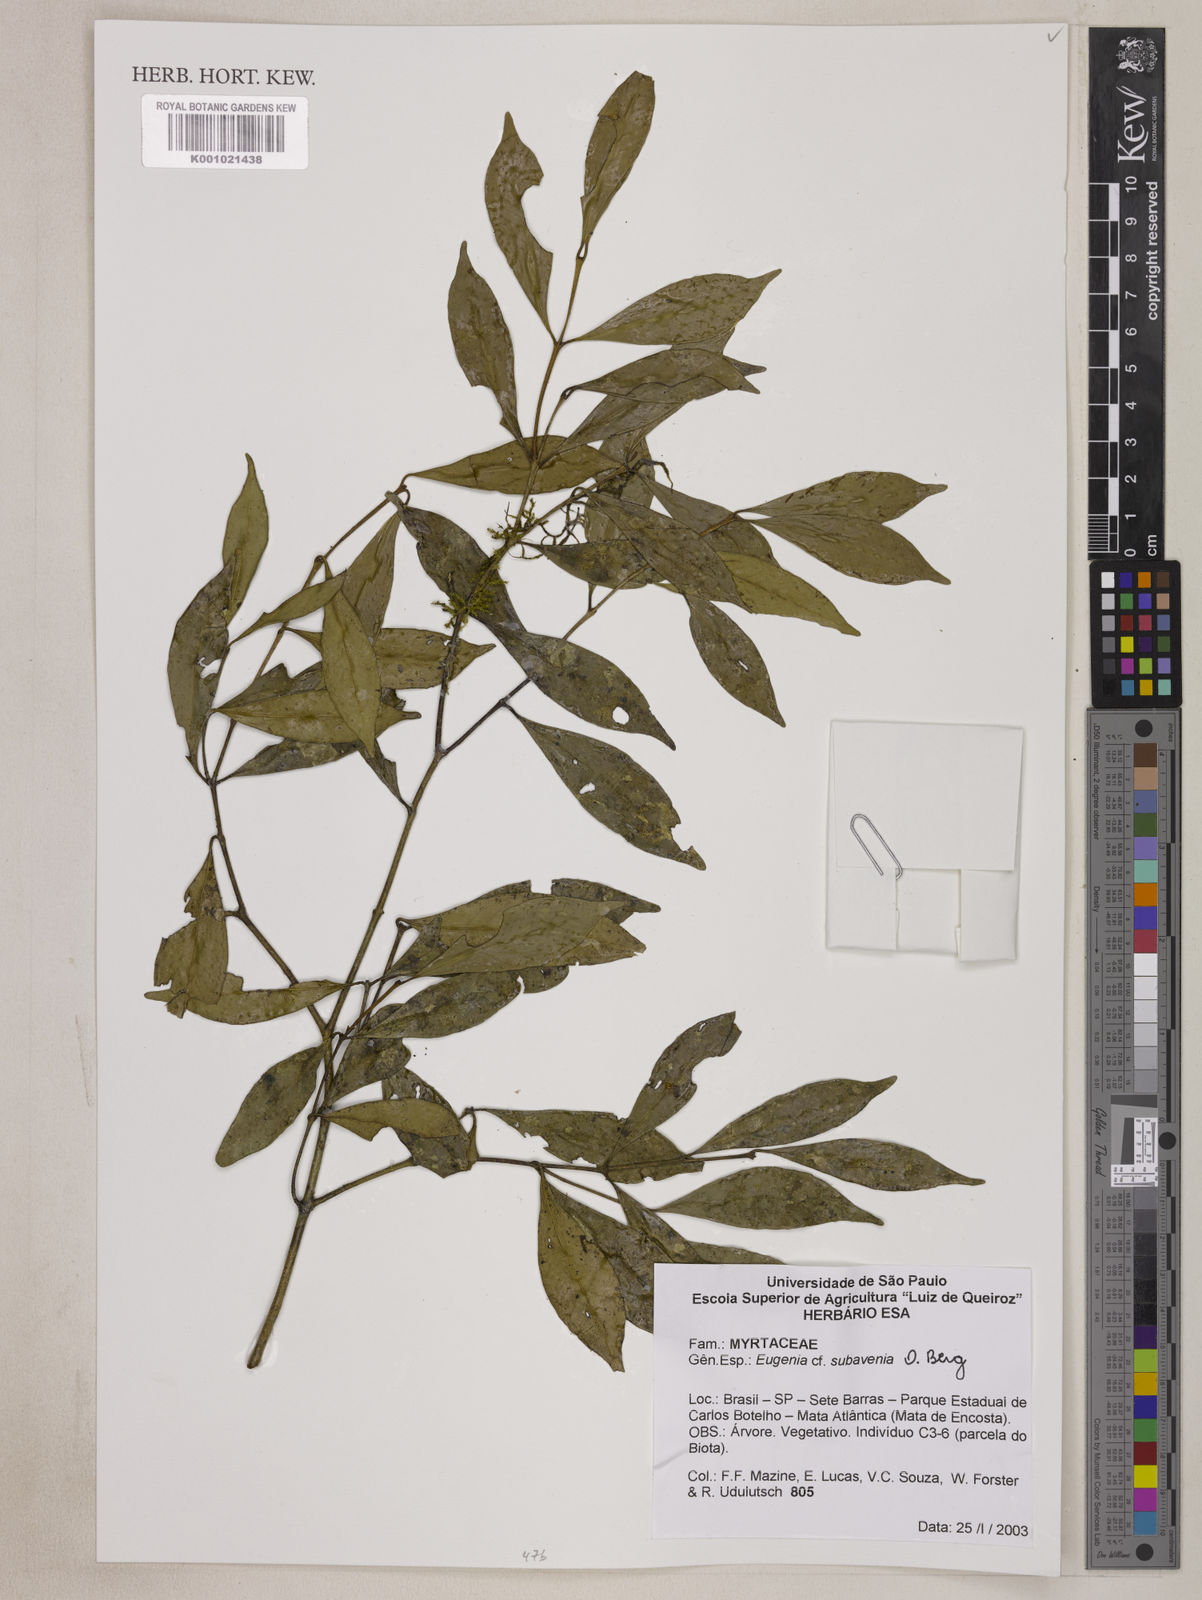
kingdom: Plantae
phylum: Tracheophyta
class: Magnoliopsida
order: Myrtales
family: Myrtaceae
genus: Eugenia
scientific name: Eugenia subavenia
